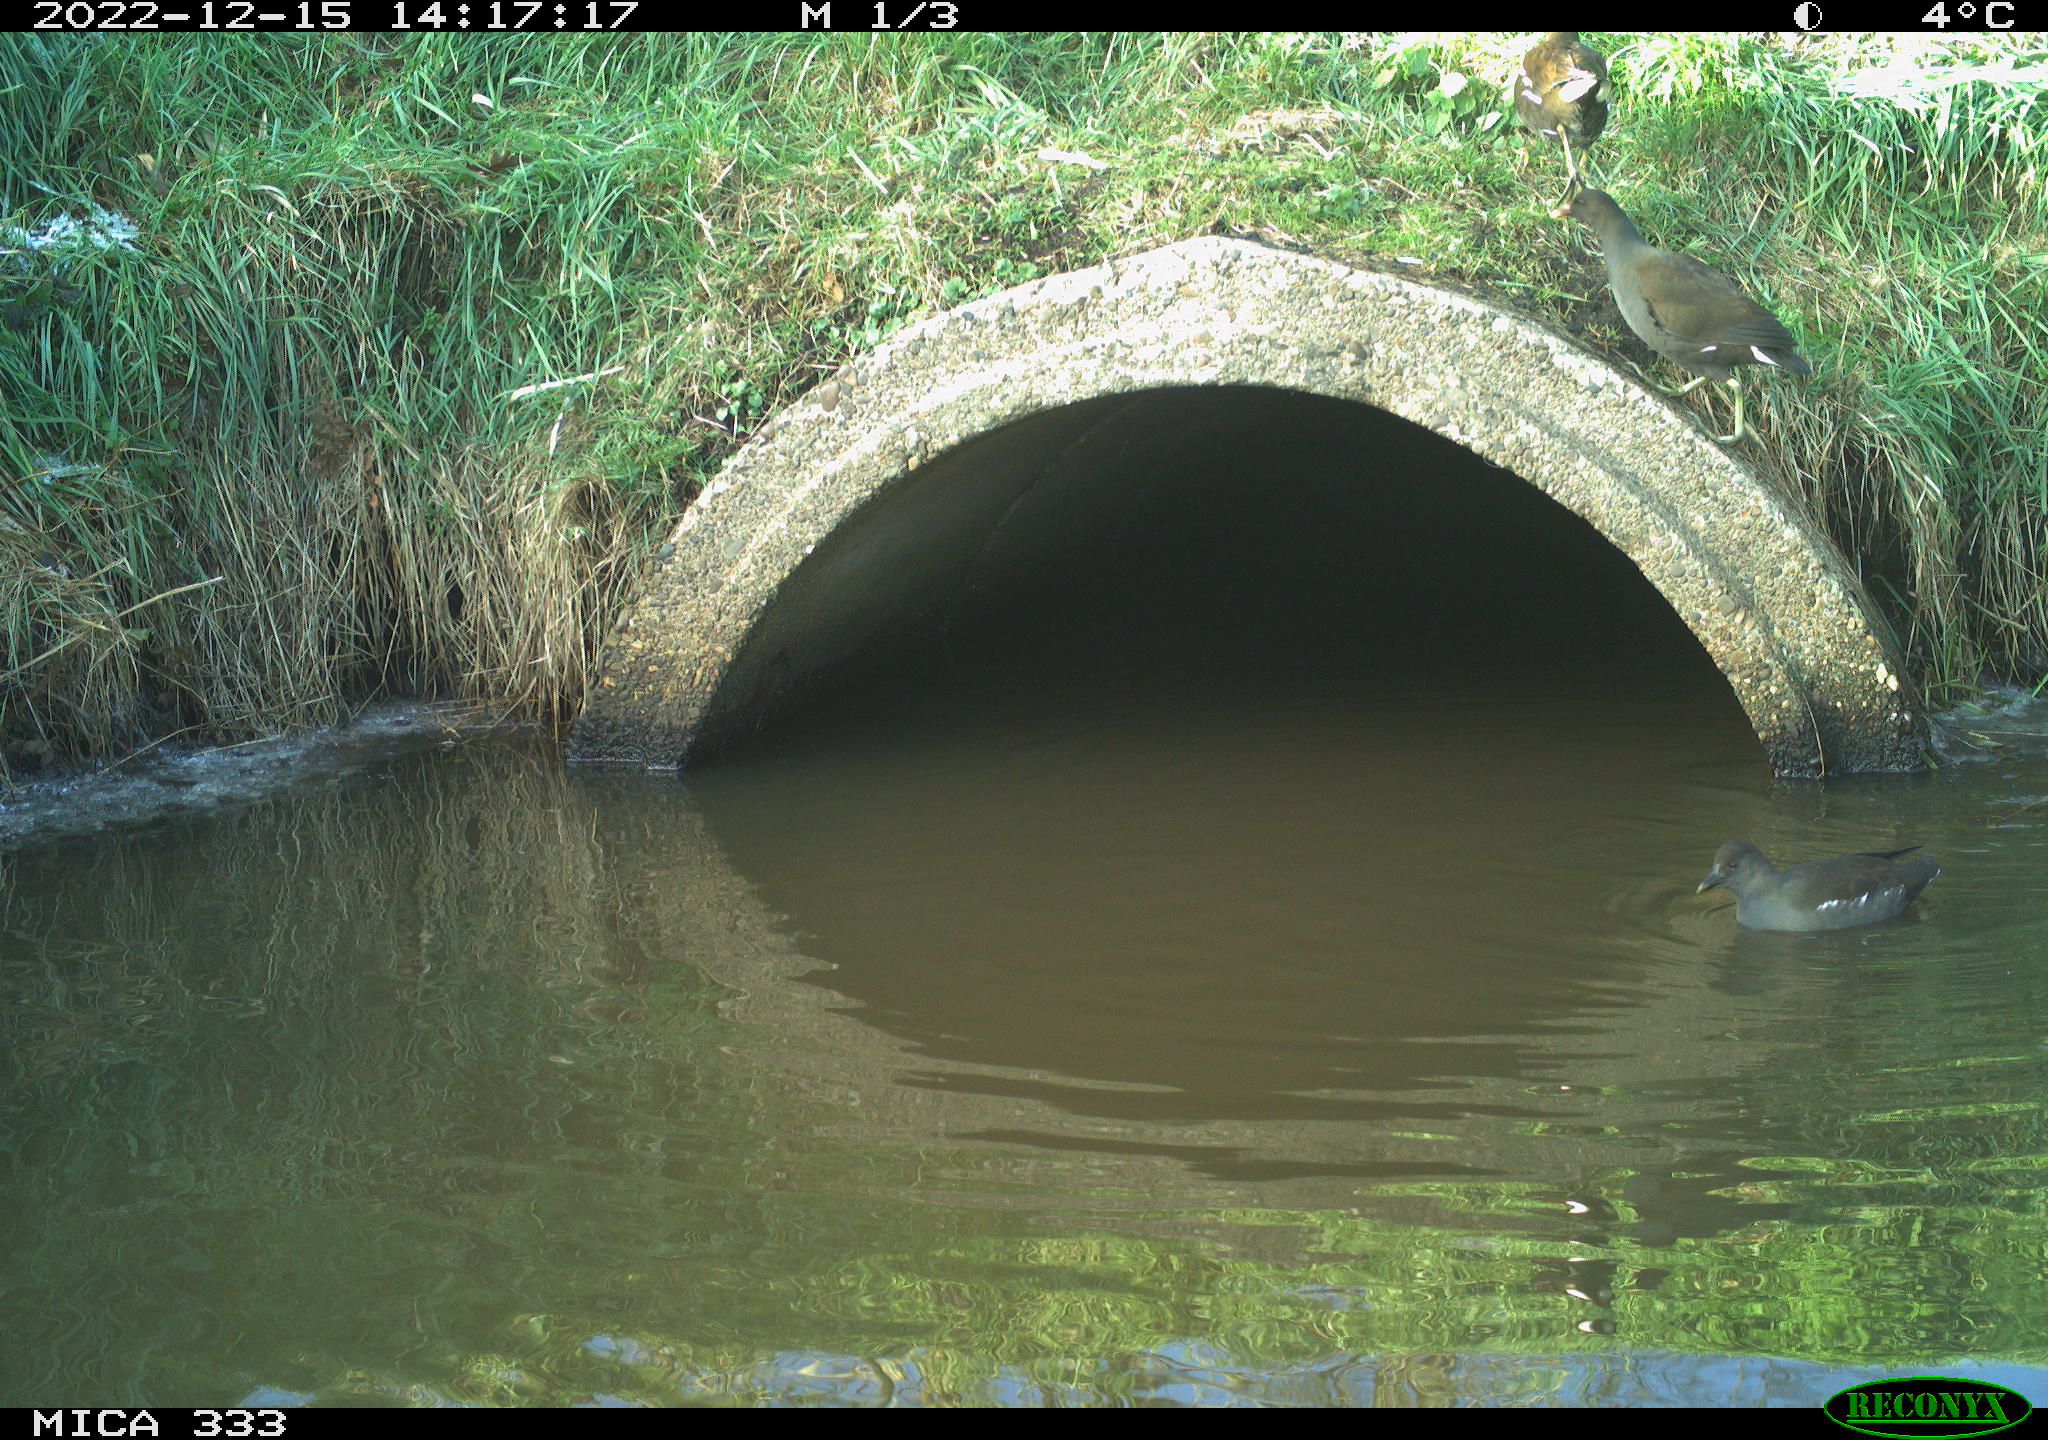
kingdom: Animalia
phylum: Chordata
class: Aves
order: Gruiformes
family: Rallidae
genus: Gallinula
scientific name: Gallinula chloropus
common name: Common moorhen
